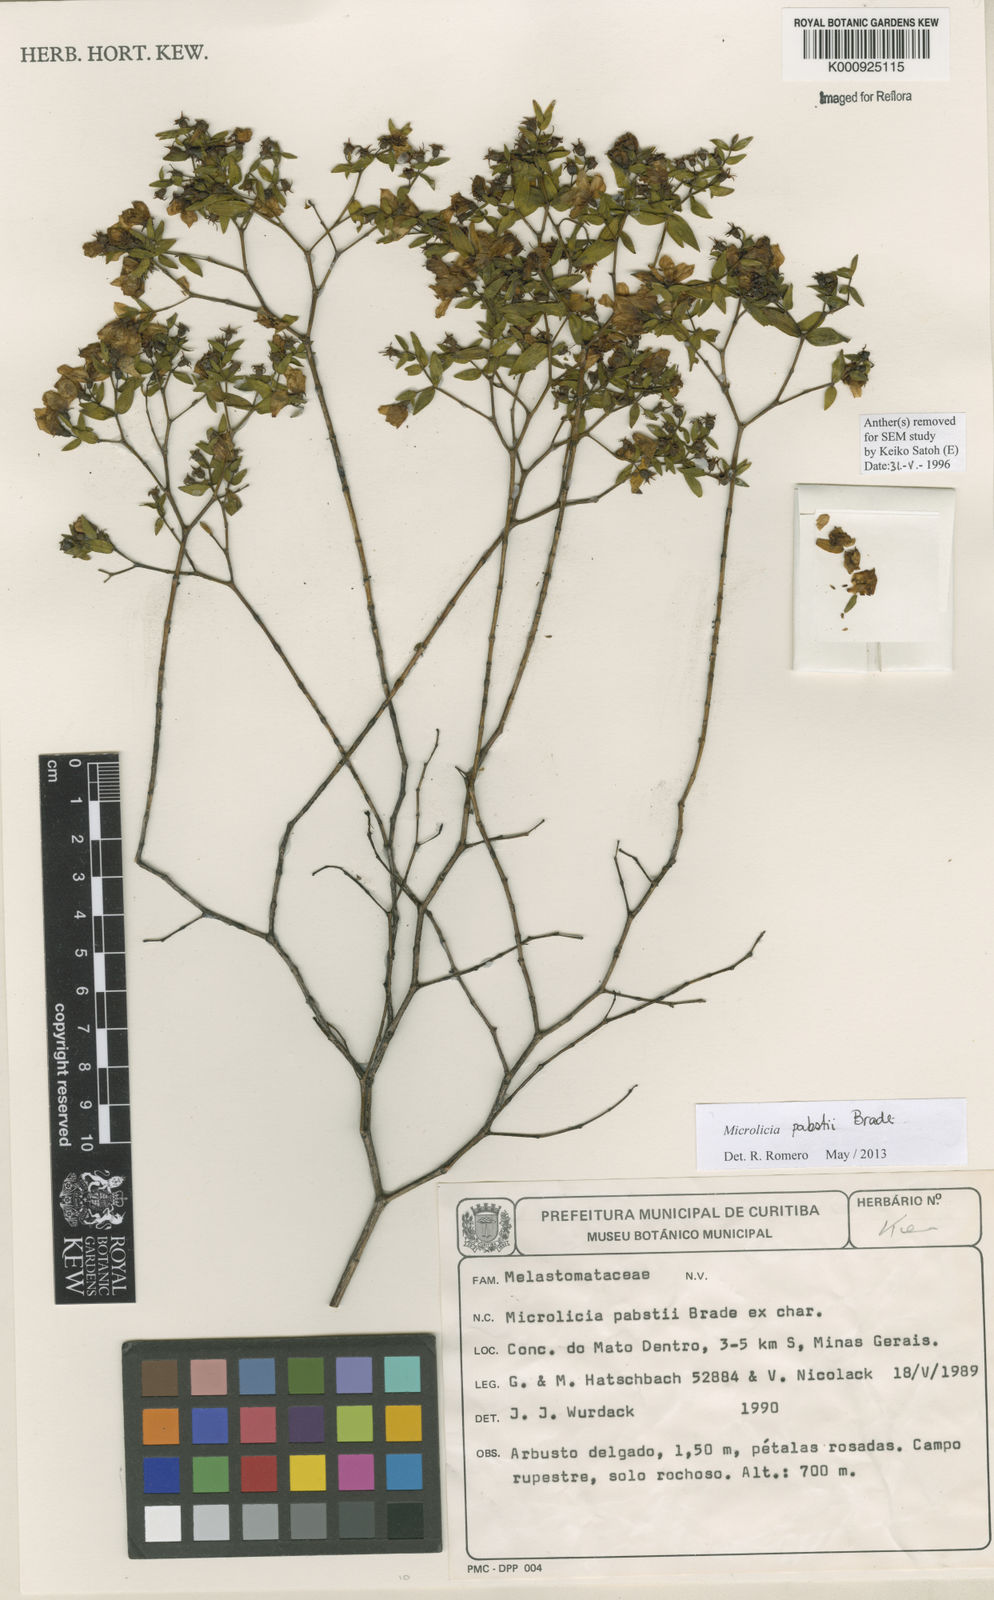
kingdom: Plantae
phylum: Tracheophyta
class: Magnoliopsida
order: Myrtales
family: Melastomataceae
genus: Microlicia
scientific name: Microlicia pabstii
